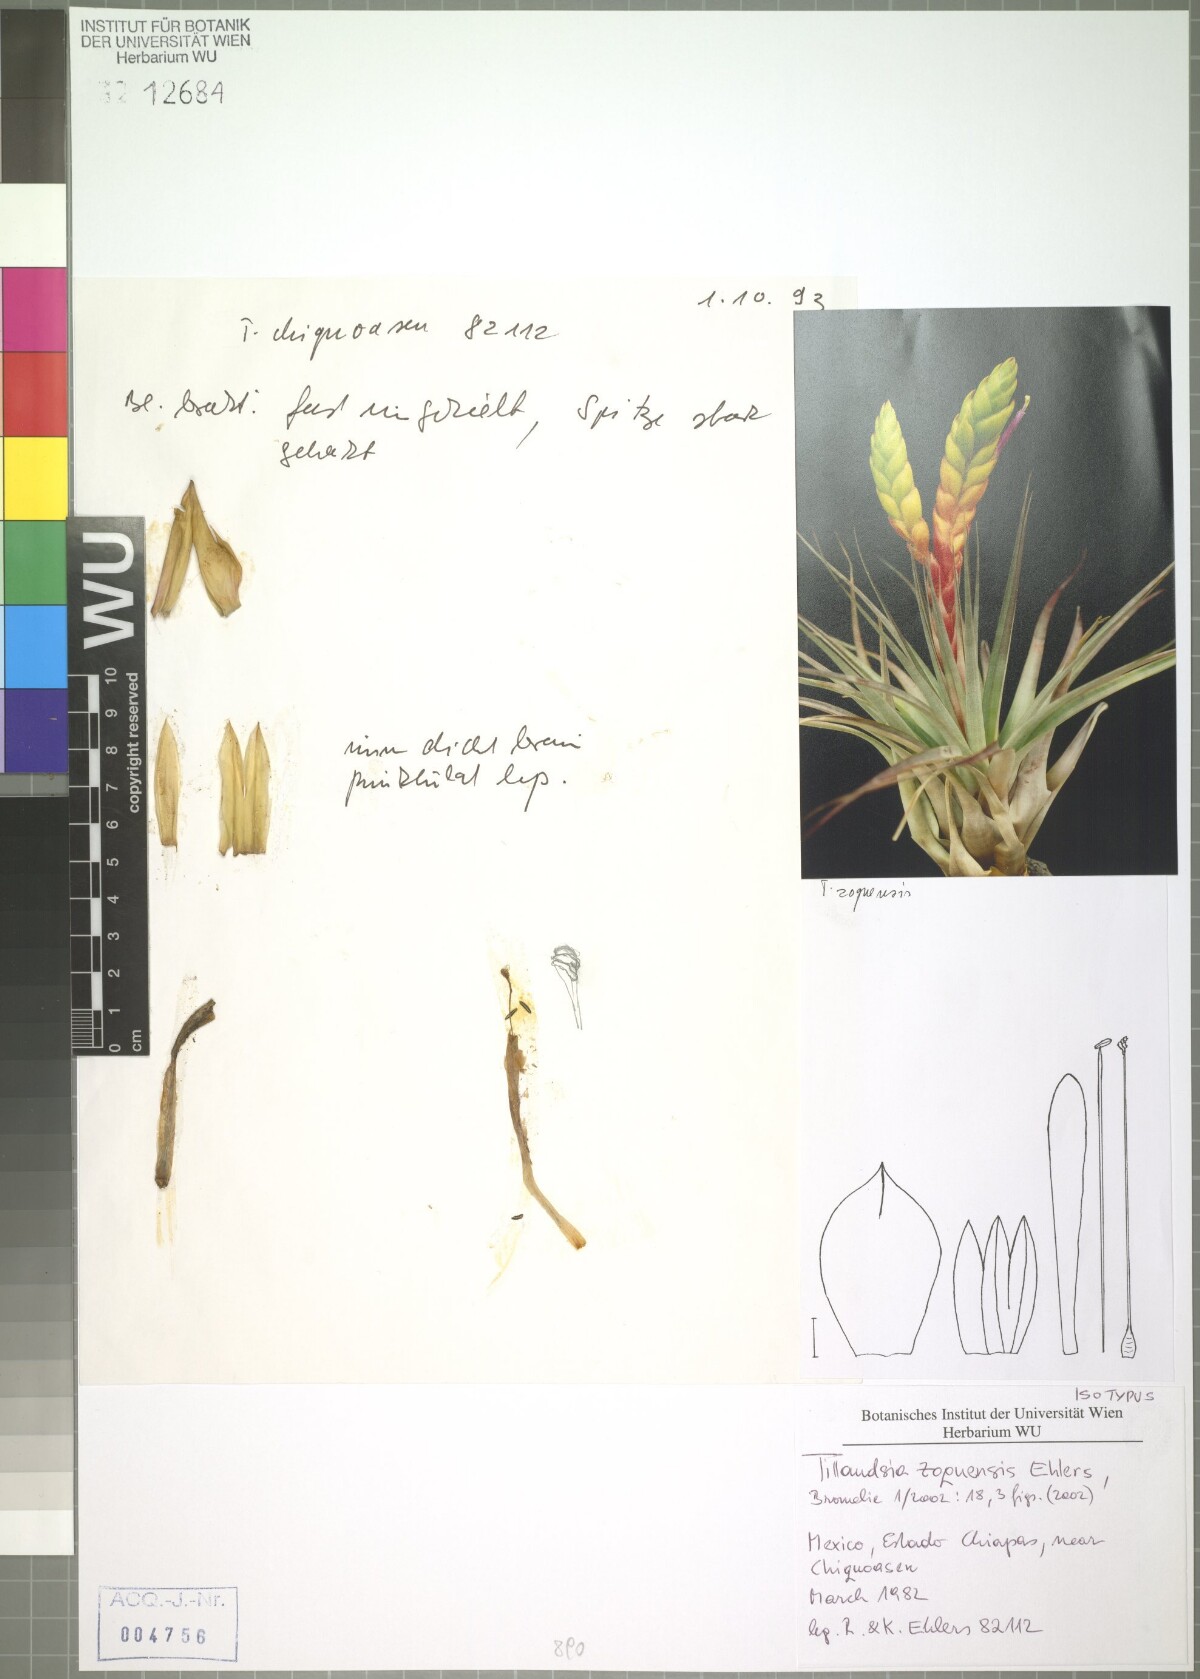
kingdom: Plantae
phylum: Tracheophyta
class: Liliopsida
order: Poales
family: Bromeliaceae
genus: Tillandsia
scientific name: Tillandsia zoquensis
